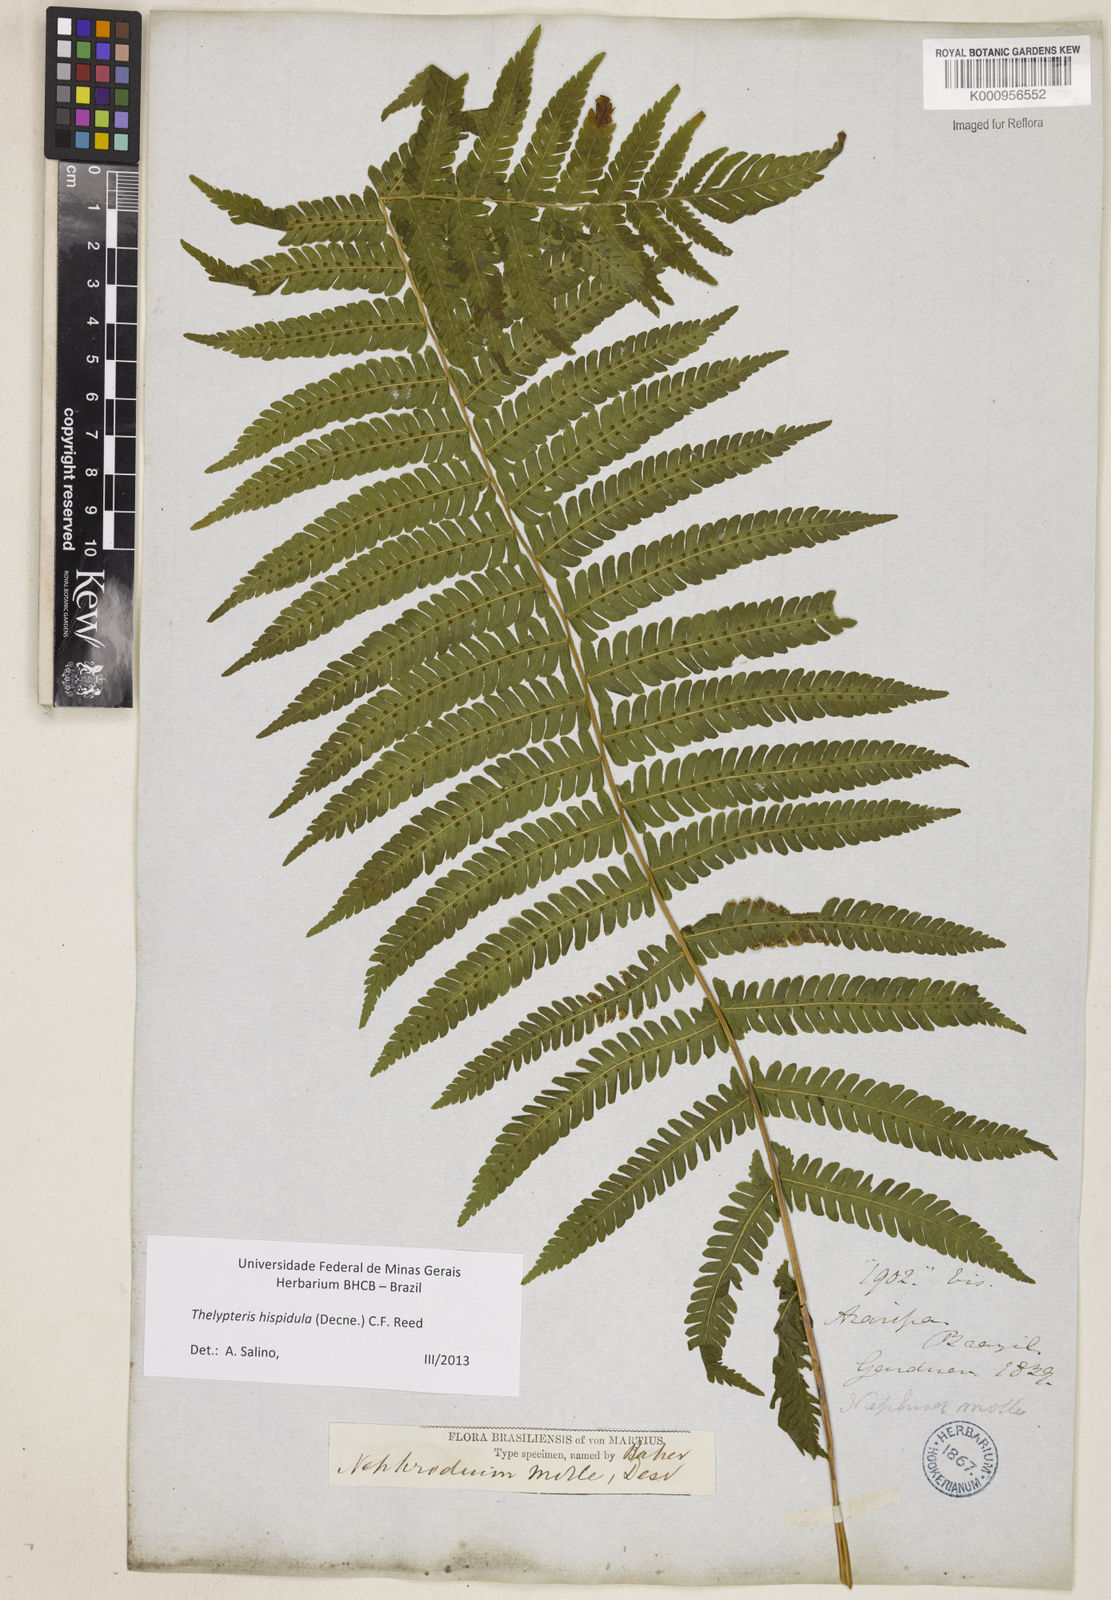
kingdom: Plantae
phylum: Tracheophyta
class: Polypodiopsida
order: Polypodiales
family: Thelypteridaceae
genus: Christella
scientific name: Christella hispidula
